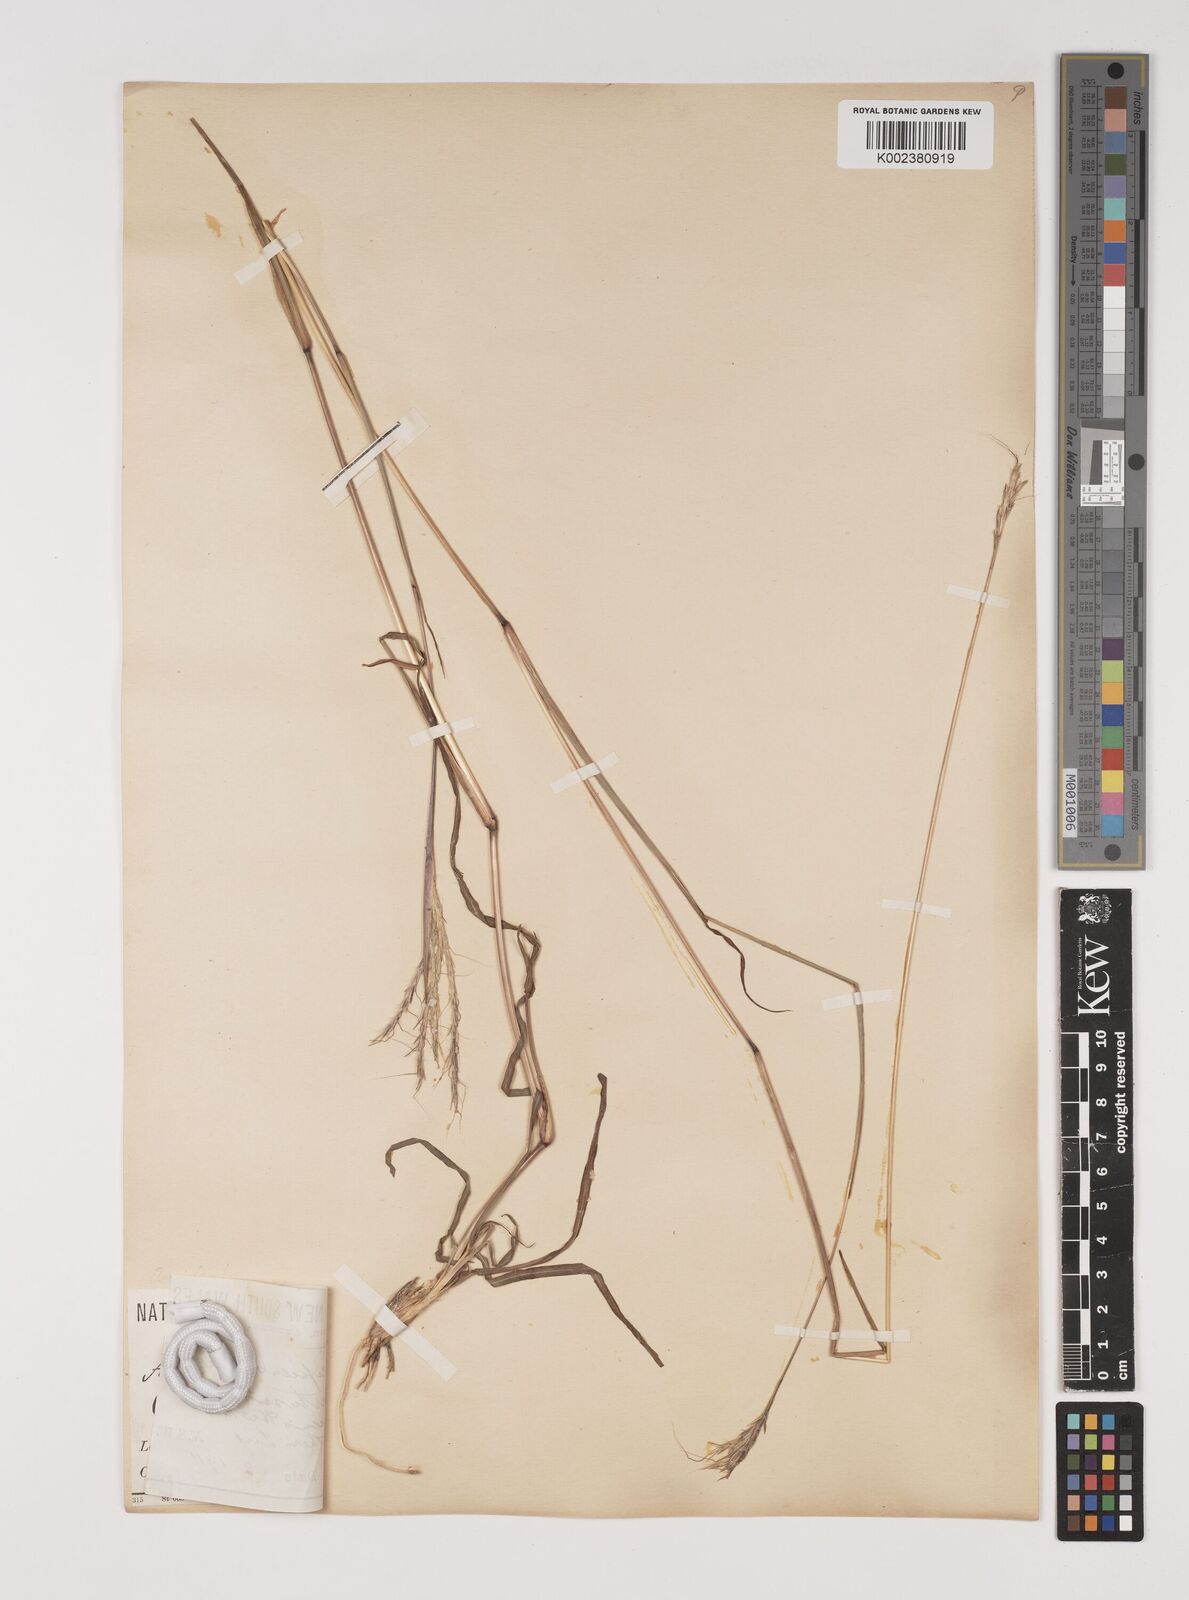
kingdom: Plantae
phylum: Tracheophyta
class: Liliopsida
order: Poales
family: Poaceae
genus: Bothriochloa
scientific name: Bothriochloa decipiens
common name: Pitted-bluegrass
